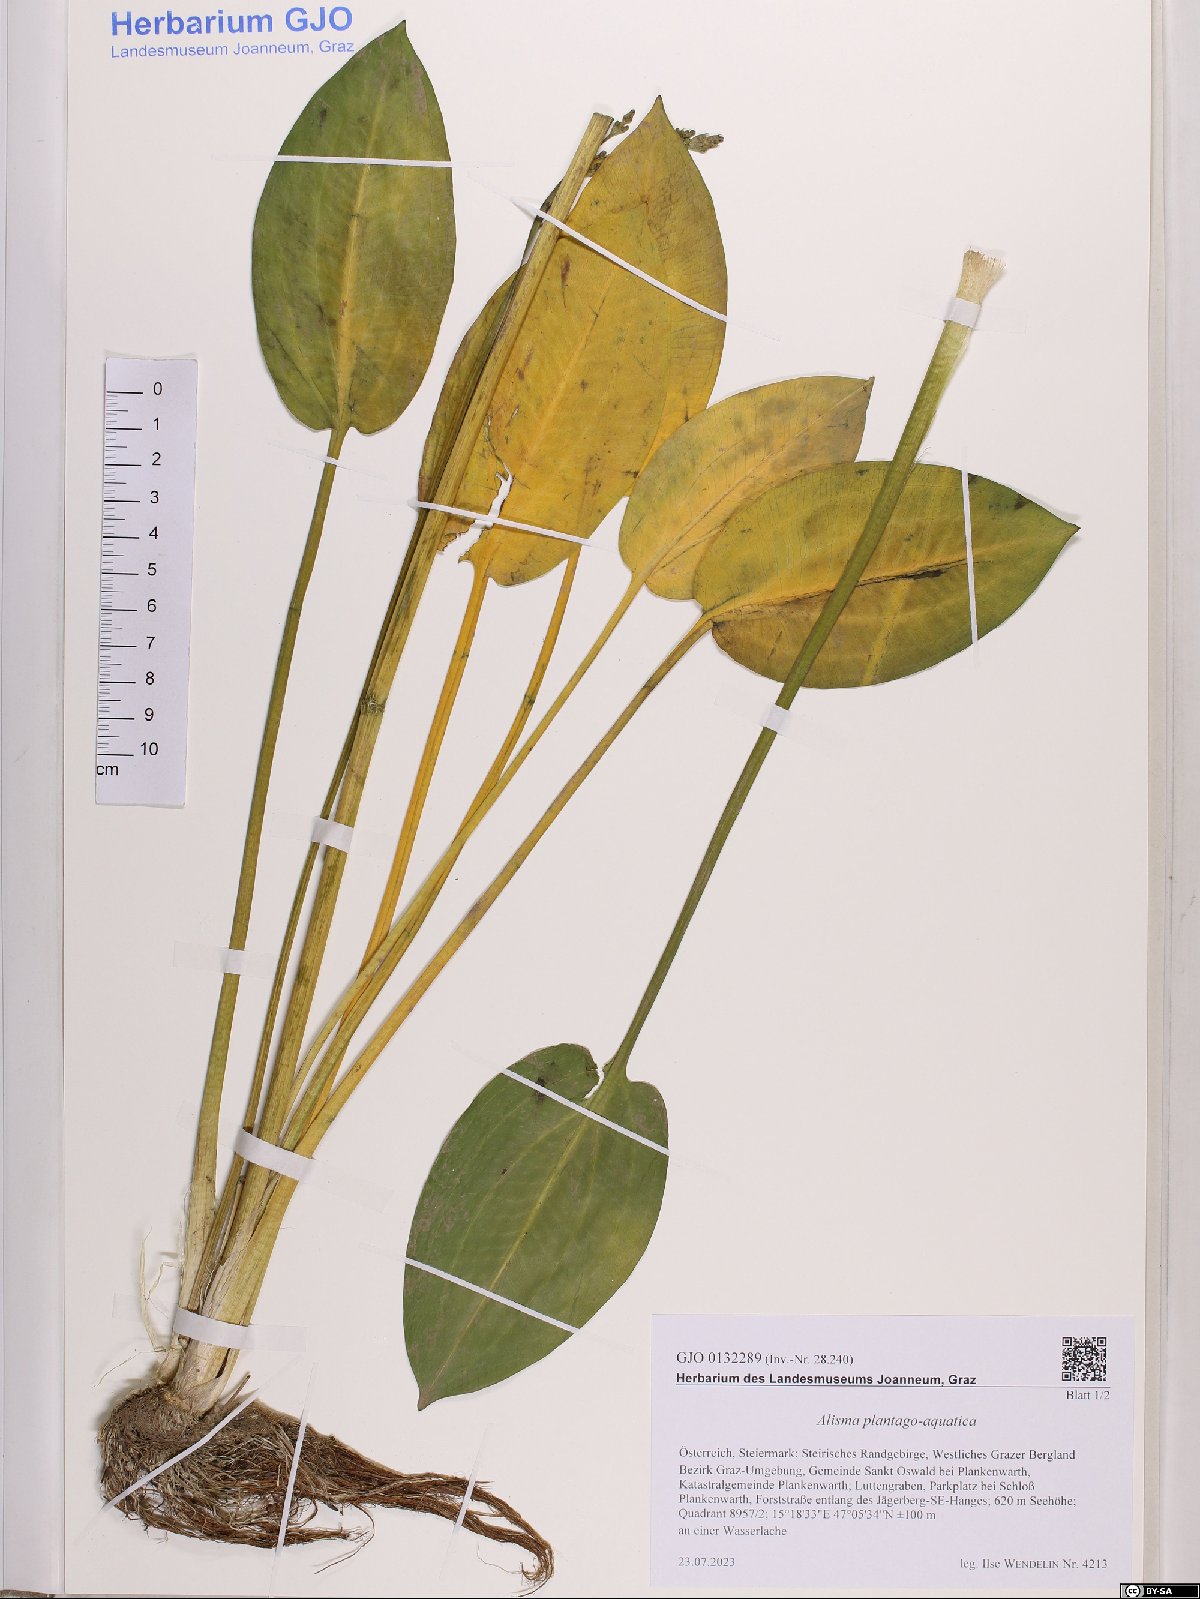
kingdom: Plantae
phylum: Tracheophyta
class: Liliopsida
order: Alismatales
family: Alismataceae
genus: Alisma
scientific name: Alisma plantago-aquatica
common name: Water-plantain
